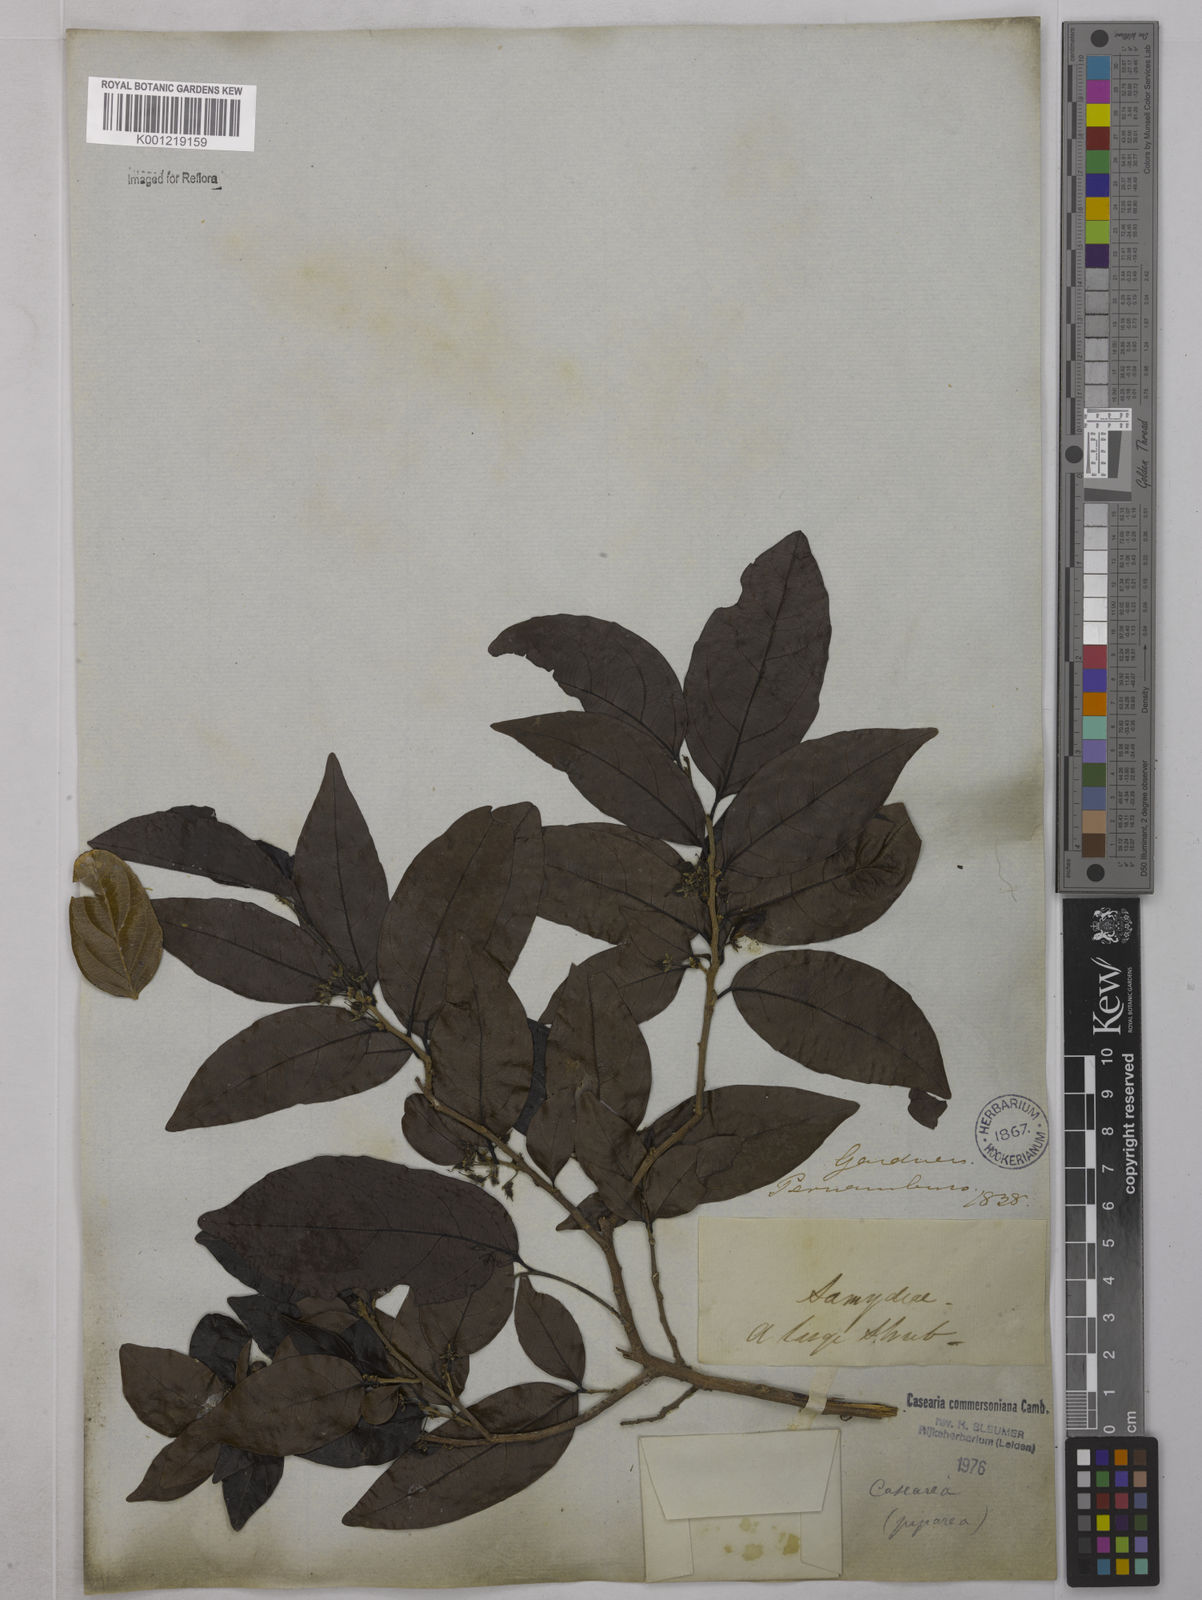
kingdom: Plantae
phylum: Tracheophyta
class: Magnoliopsida
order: Malpighiales
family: Salicaceae
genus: Piparea
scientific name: Piparea dentata
